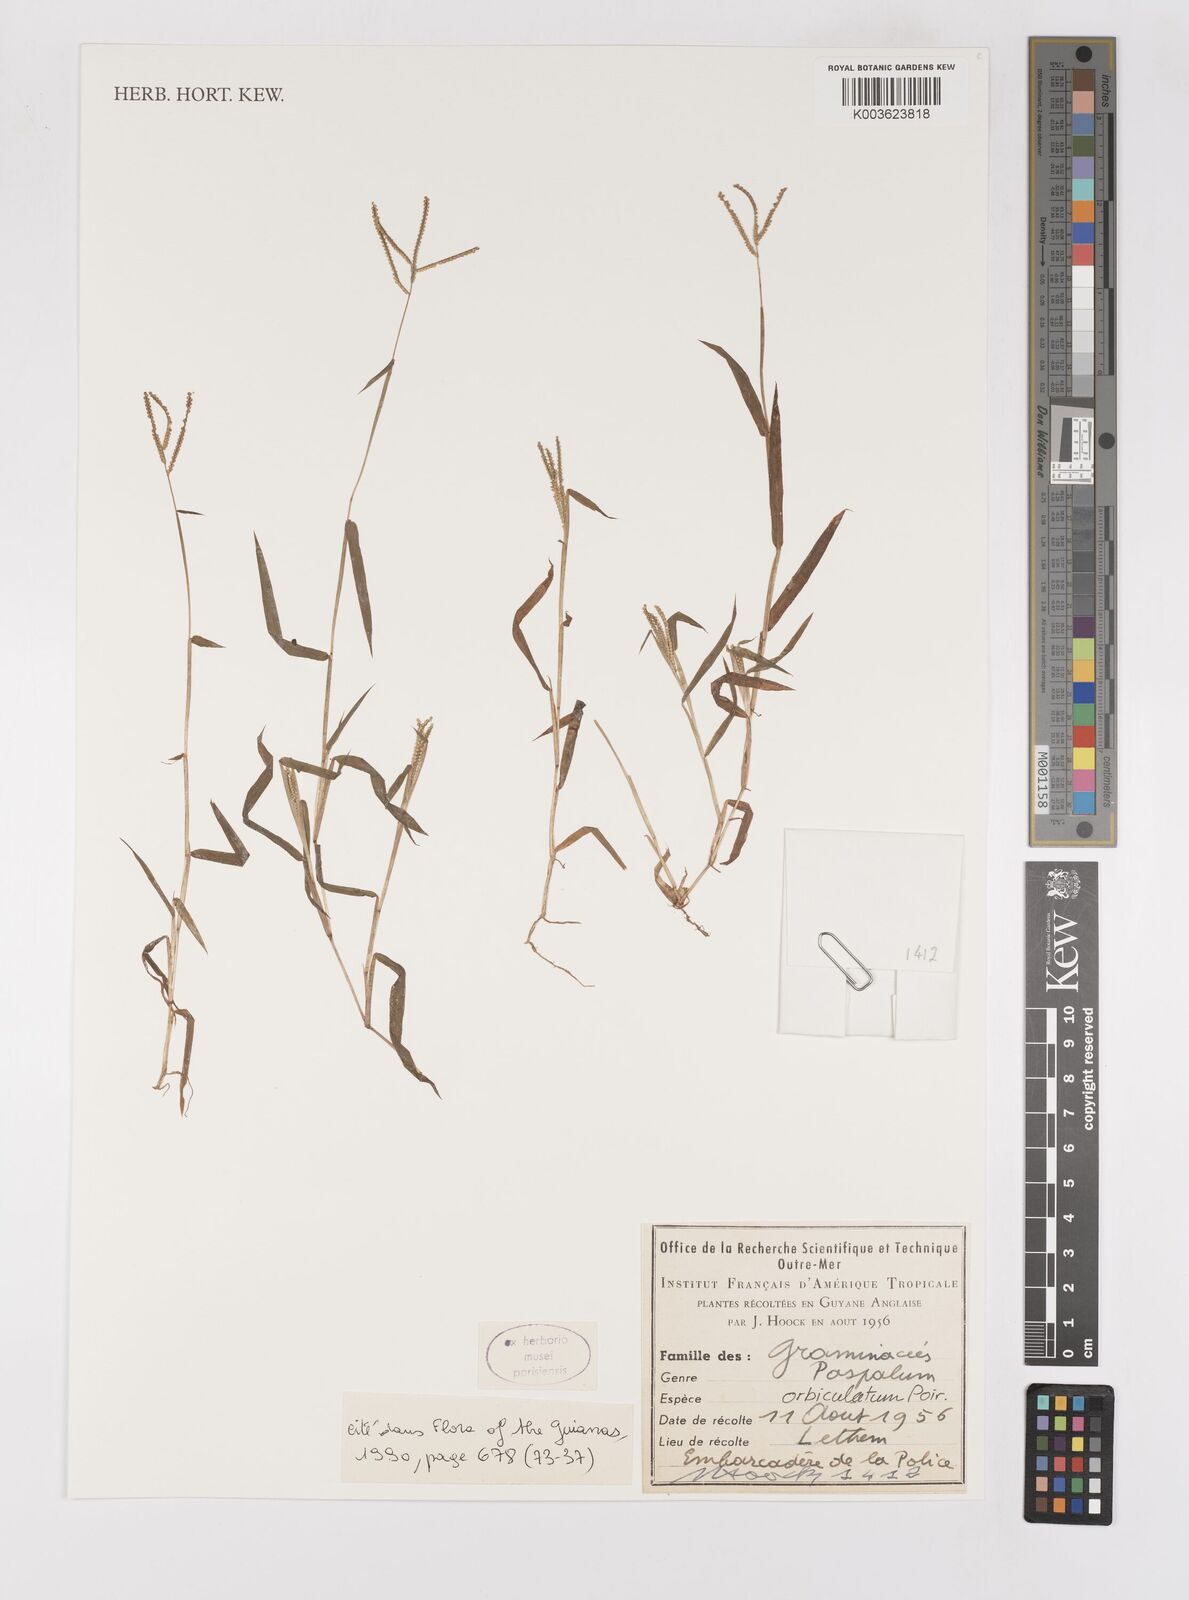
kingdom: Plantae
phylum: Tracheophyta
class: Liliopsida
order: Poales
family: Poaceae
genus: Paspalum
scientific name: Paspalum orbiculatum
